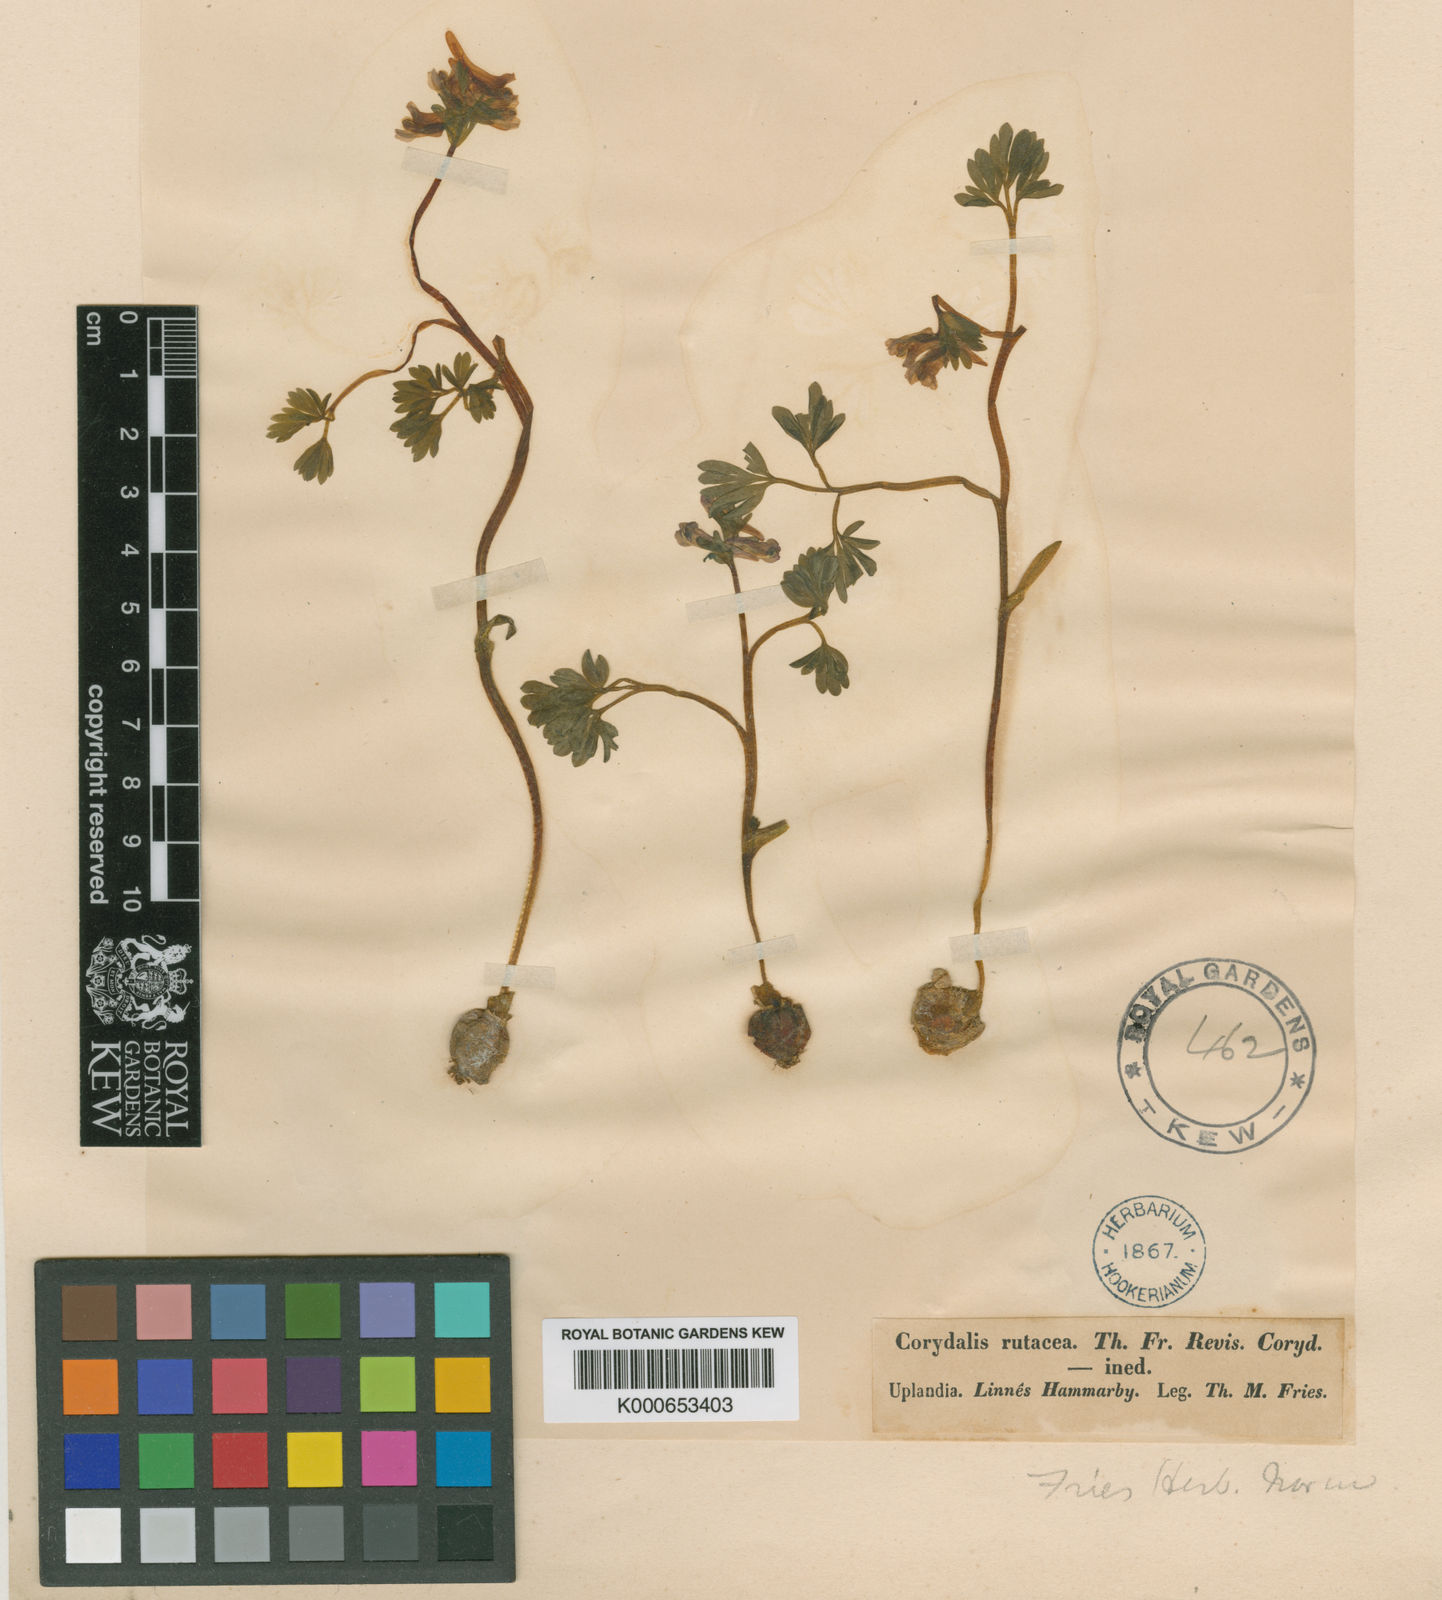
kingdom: Plantae
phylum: Tracheophyta
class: Magnoliopsida
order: Ranunculales
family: Papaveraceae
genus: Corydalis
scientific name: Corydalis rutacea
